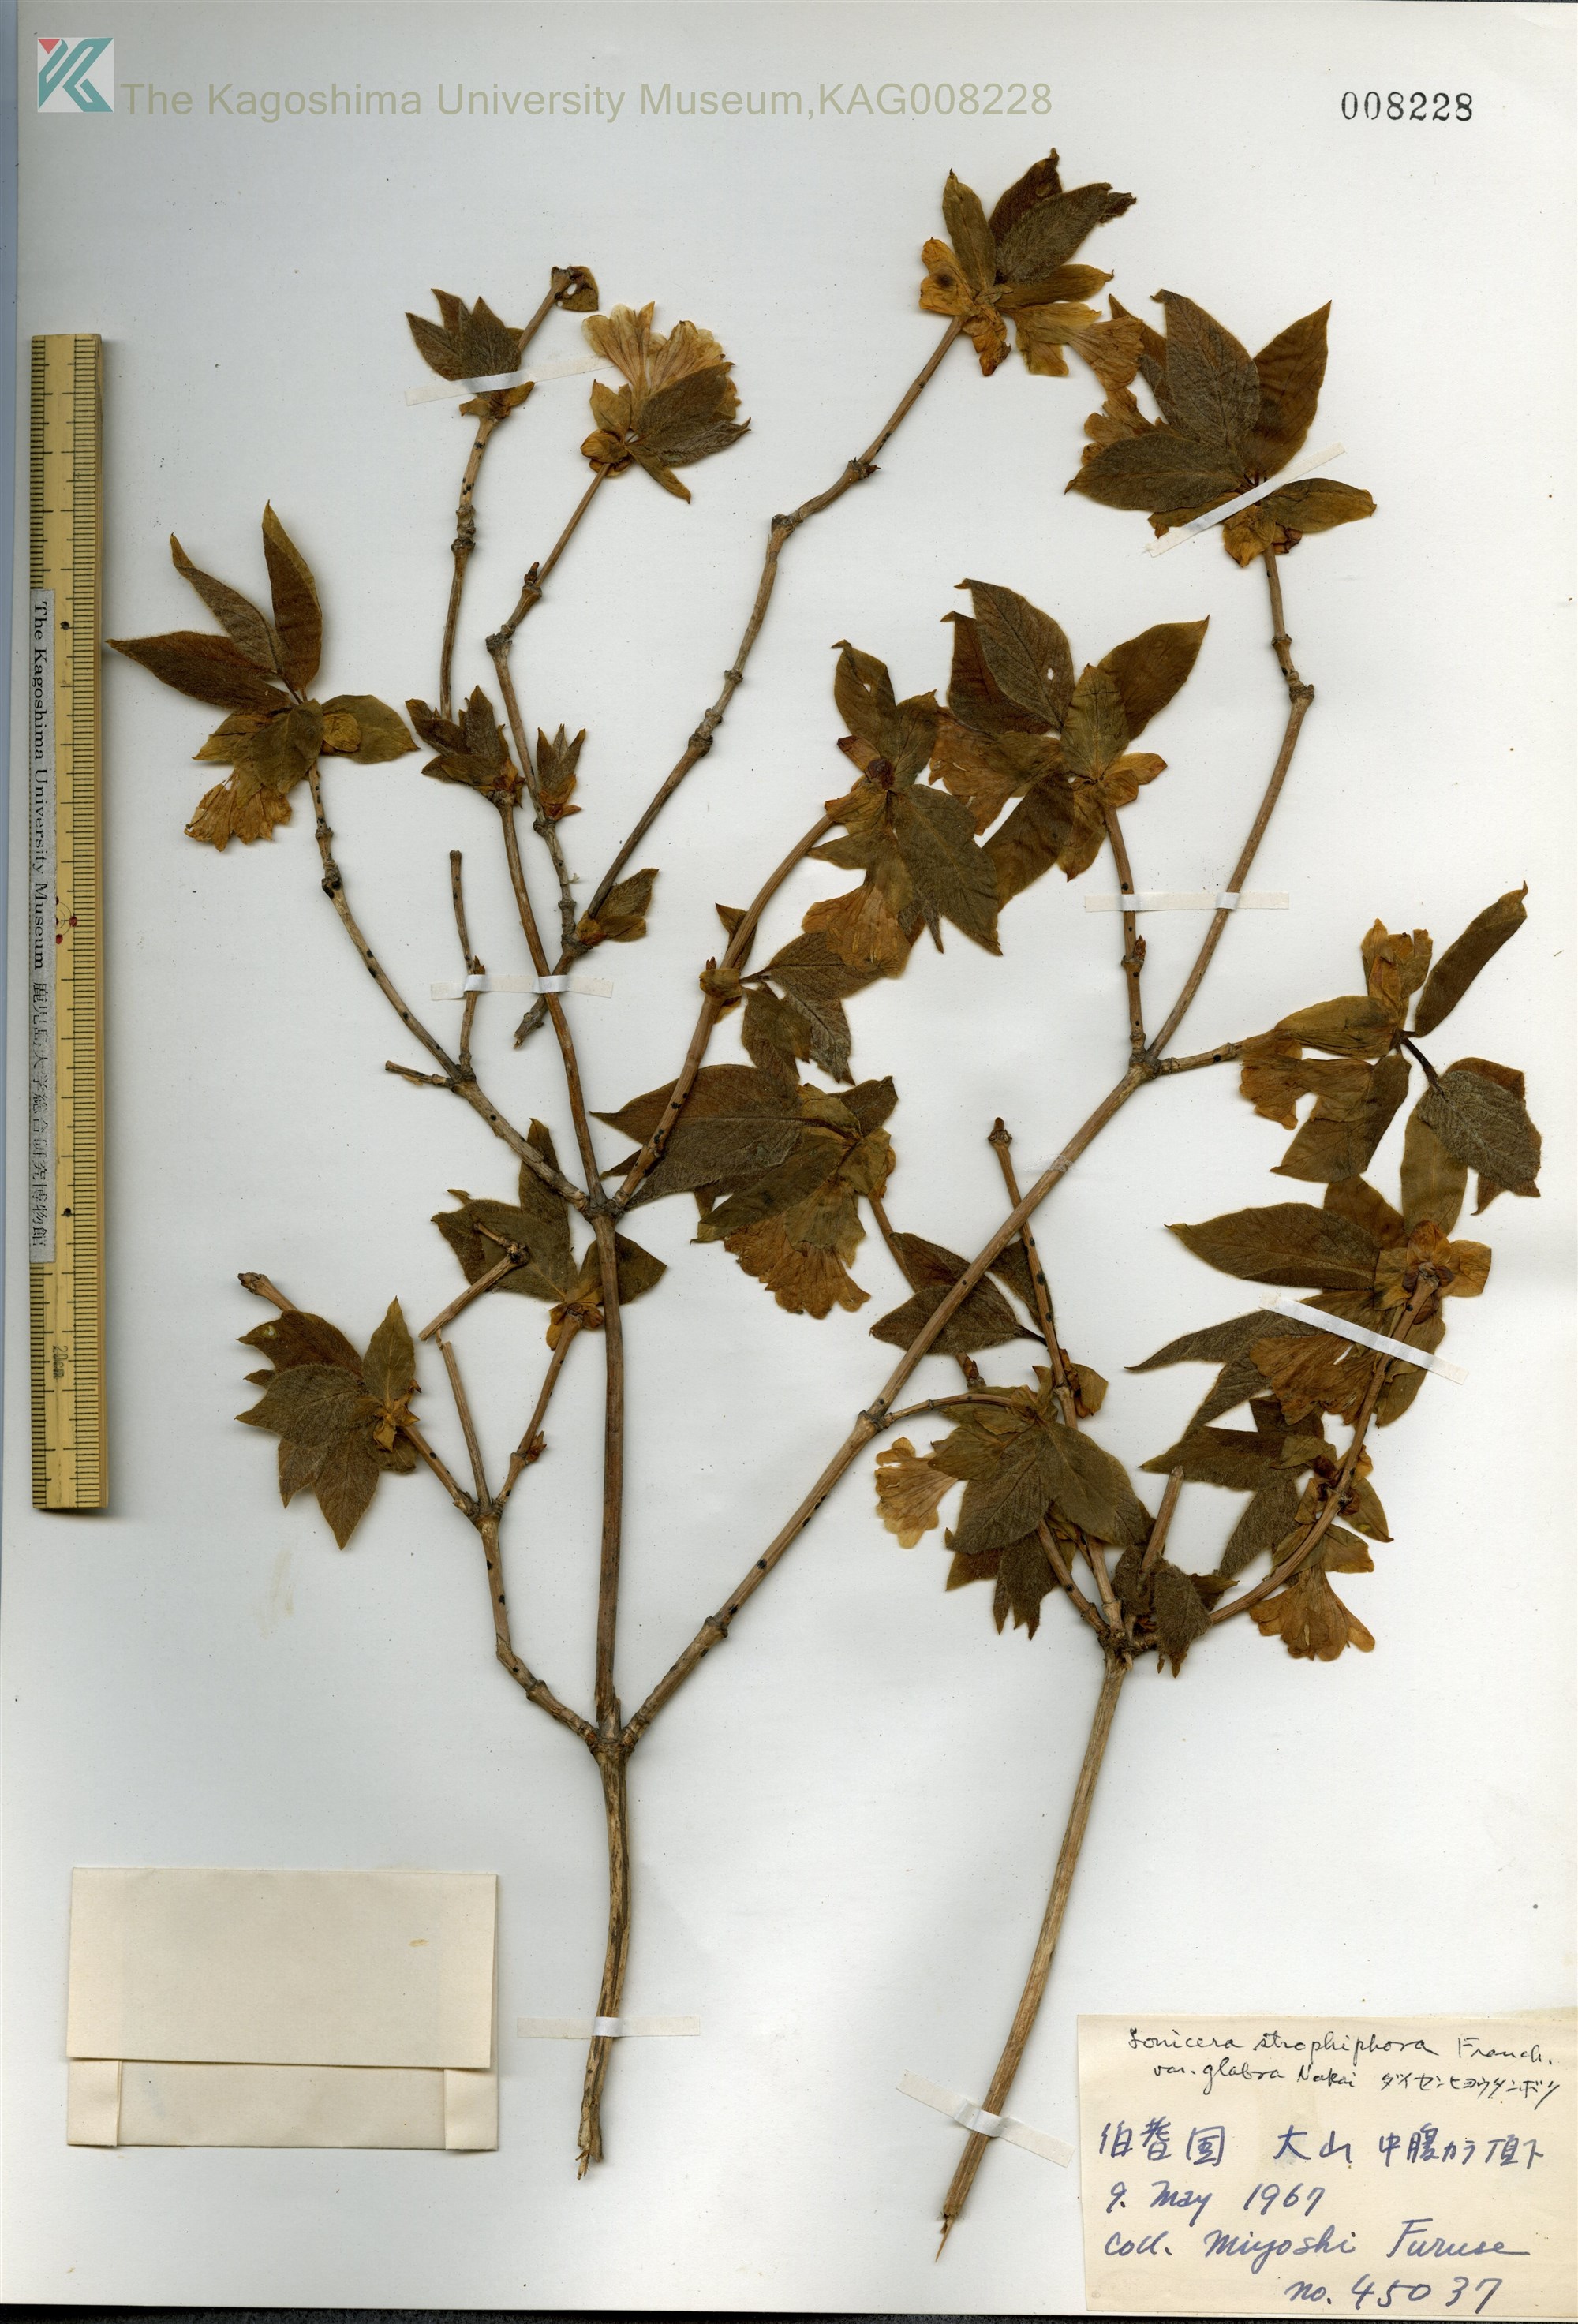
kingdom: Plantae
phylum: Tracheophyta
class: Magnoliopsida
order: Dipsacales
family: Caprifoliaceae
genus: Lonicera
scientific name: Lonicera strophiophora
